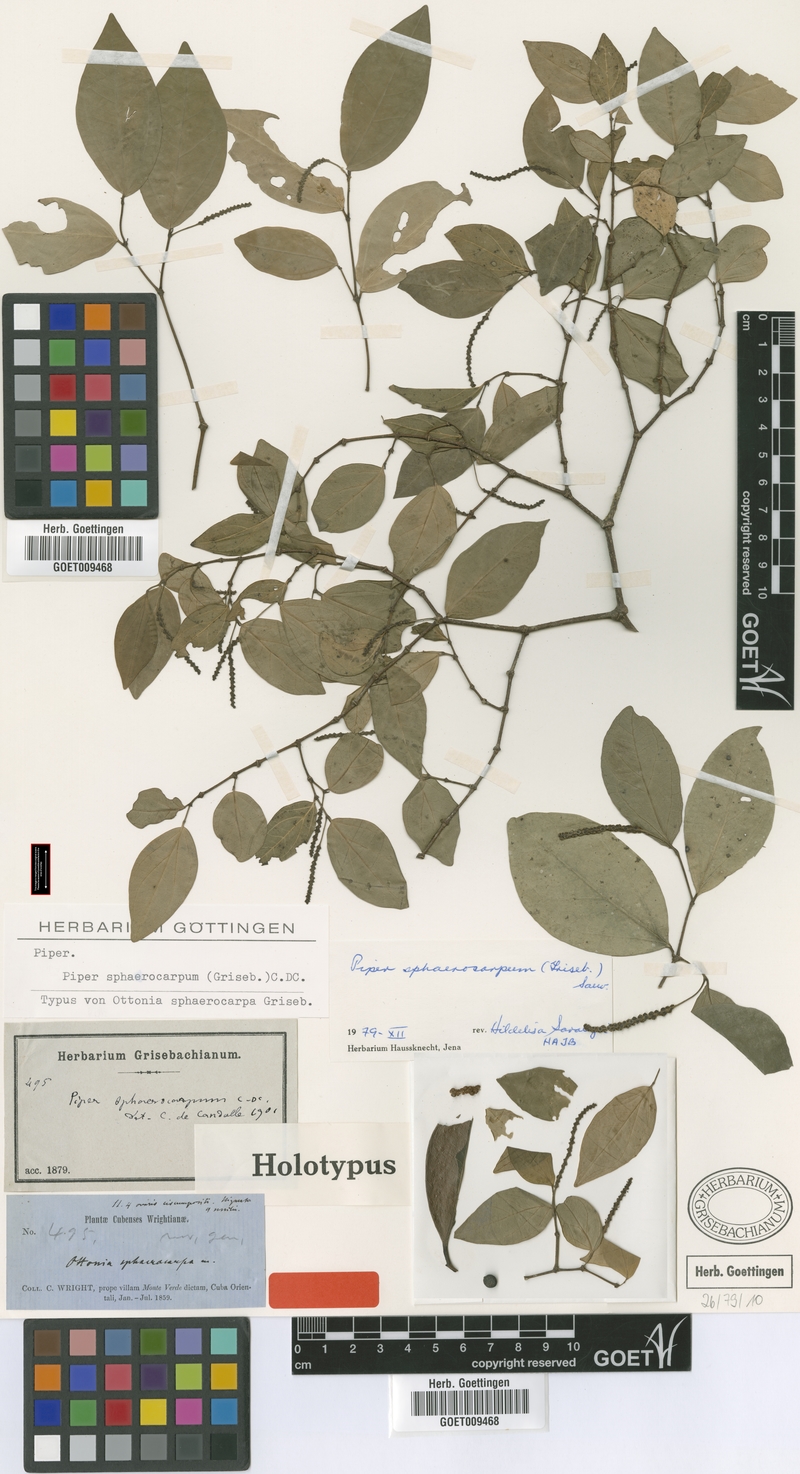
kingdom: Plantae
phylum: Tracheophyta
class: Magnoliopsida
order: Piperales
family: Piperaceae
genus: Piper
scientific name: Piper sphaerocarpum
